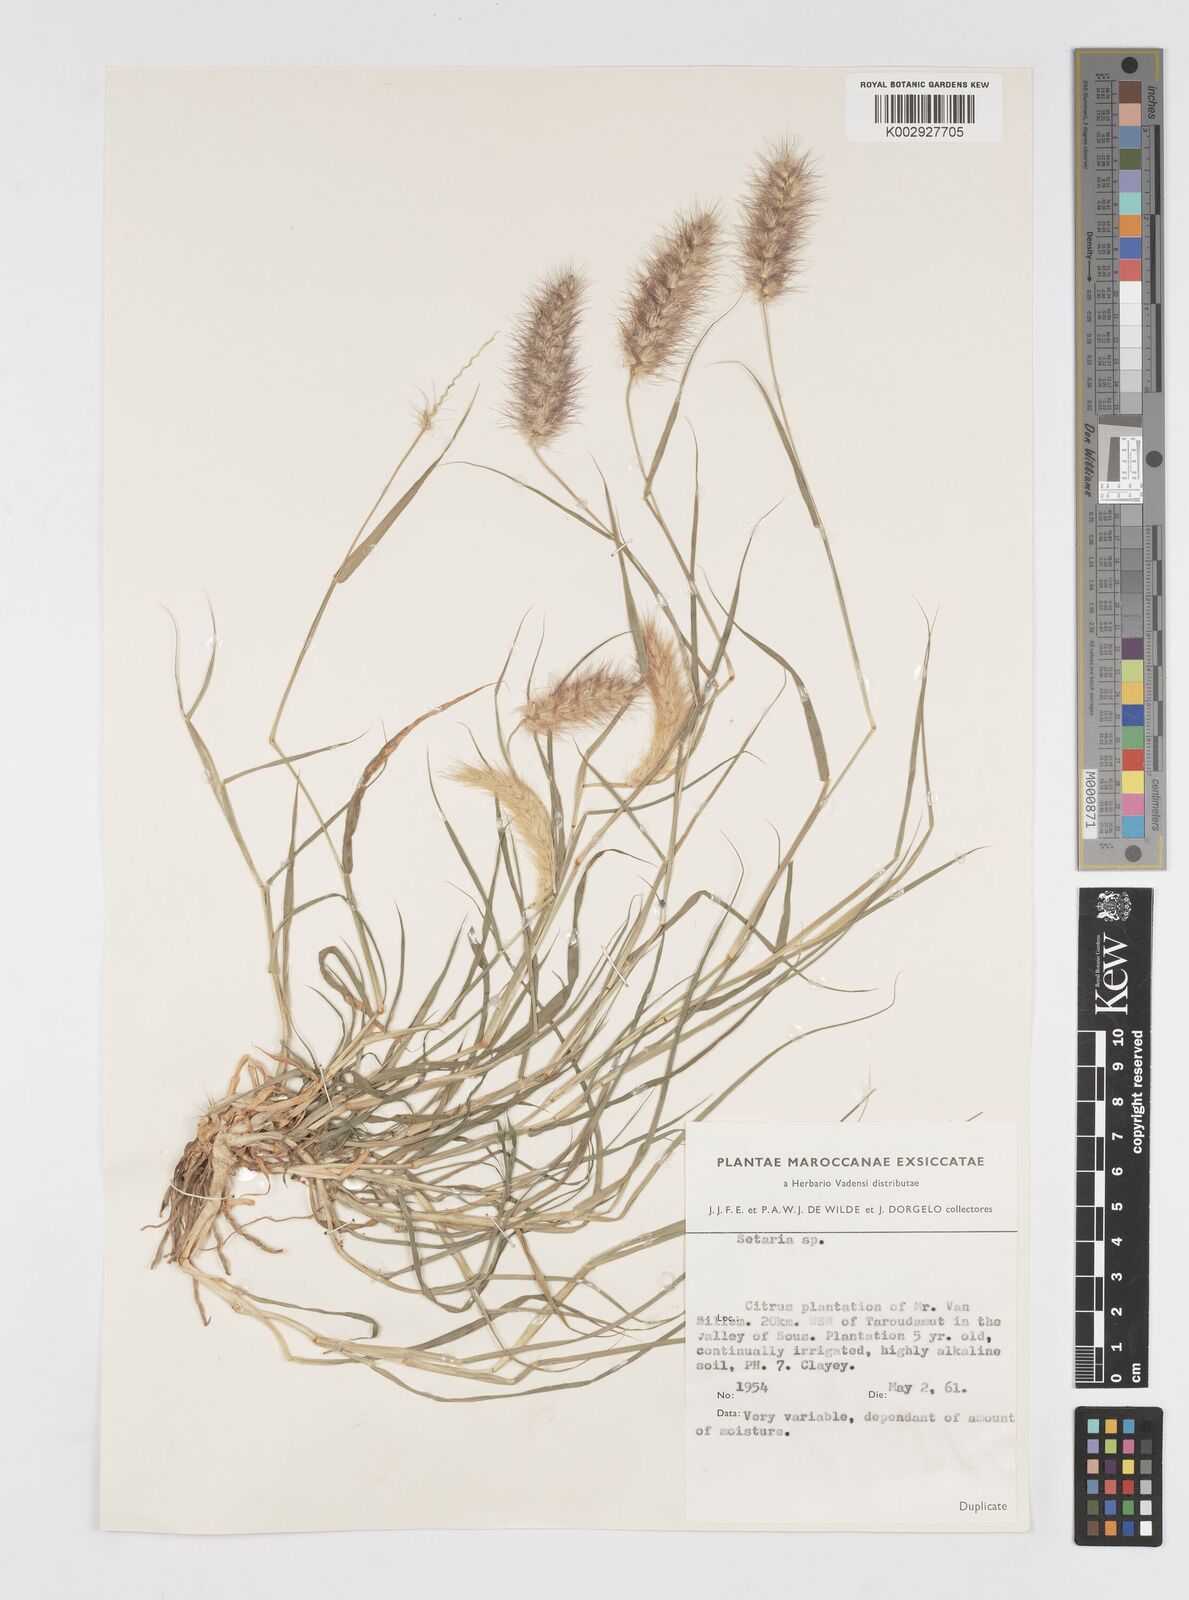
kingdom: Plantae
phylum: Tracheophyta
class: Liliopsida
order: Poales
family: Poaceae
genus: Cenchrus
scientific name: Cenchrus ciliaris
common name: Buffelgrass
